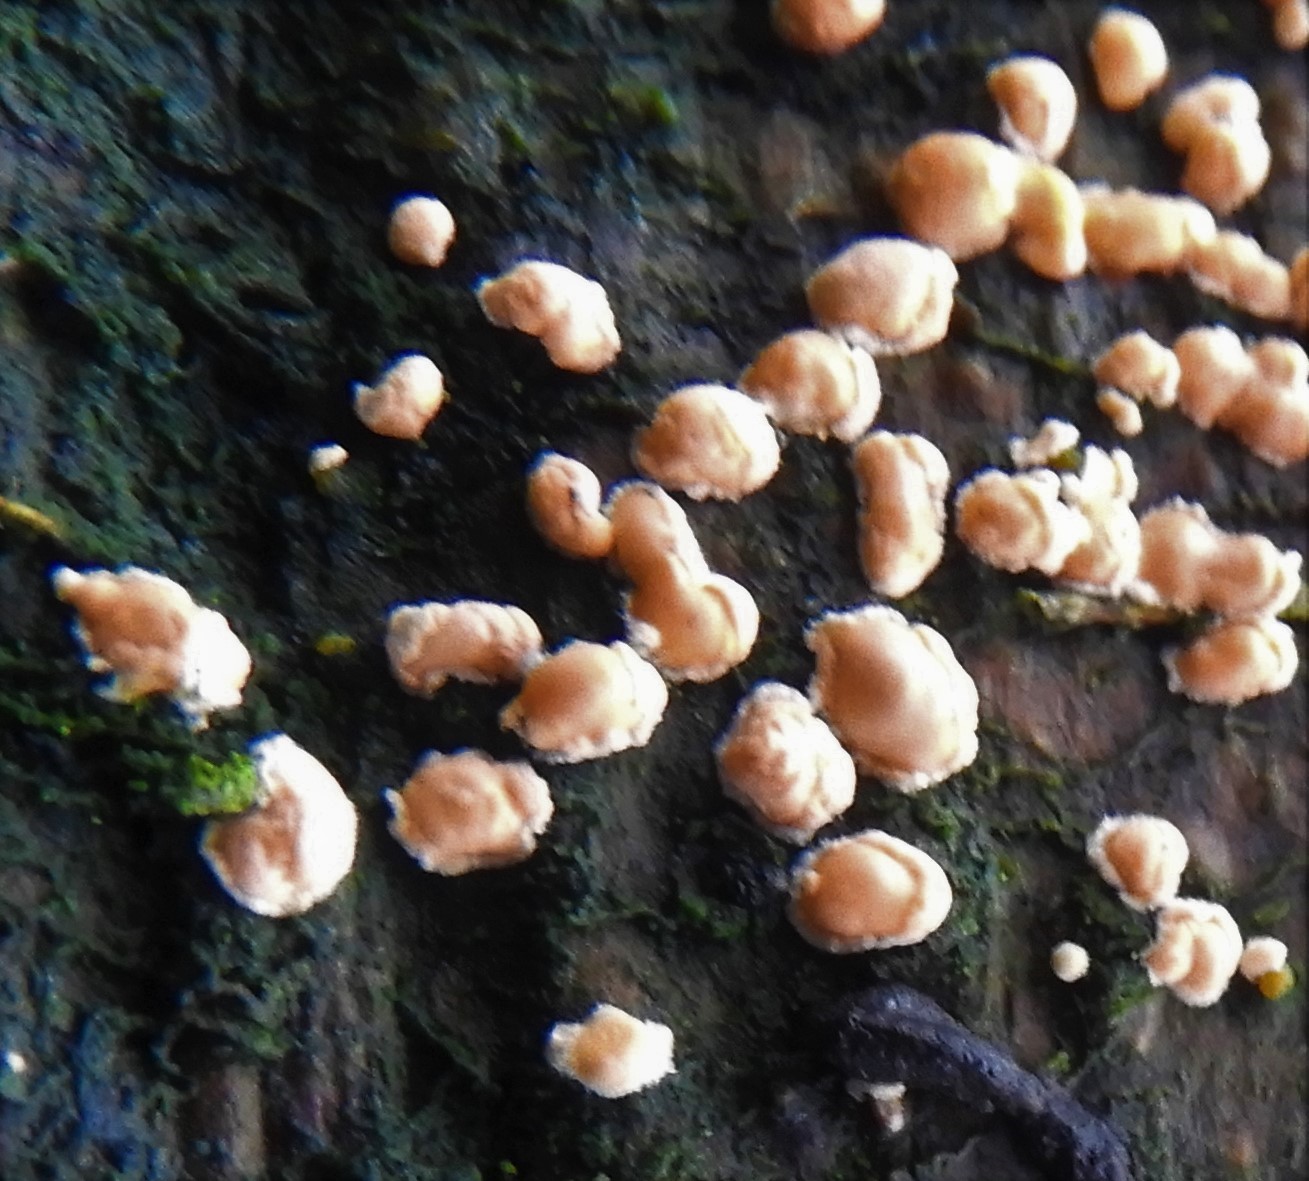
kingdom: Fungi
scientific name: Fungi
